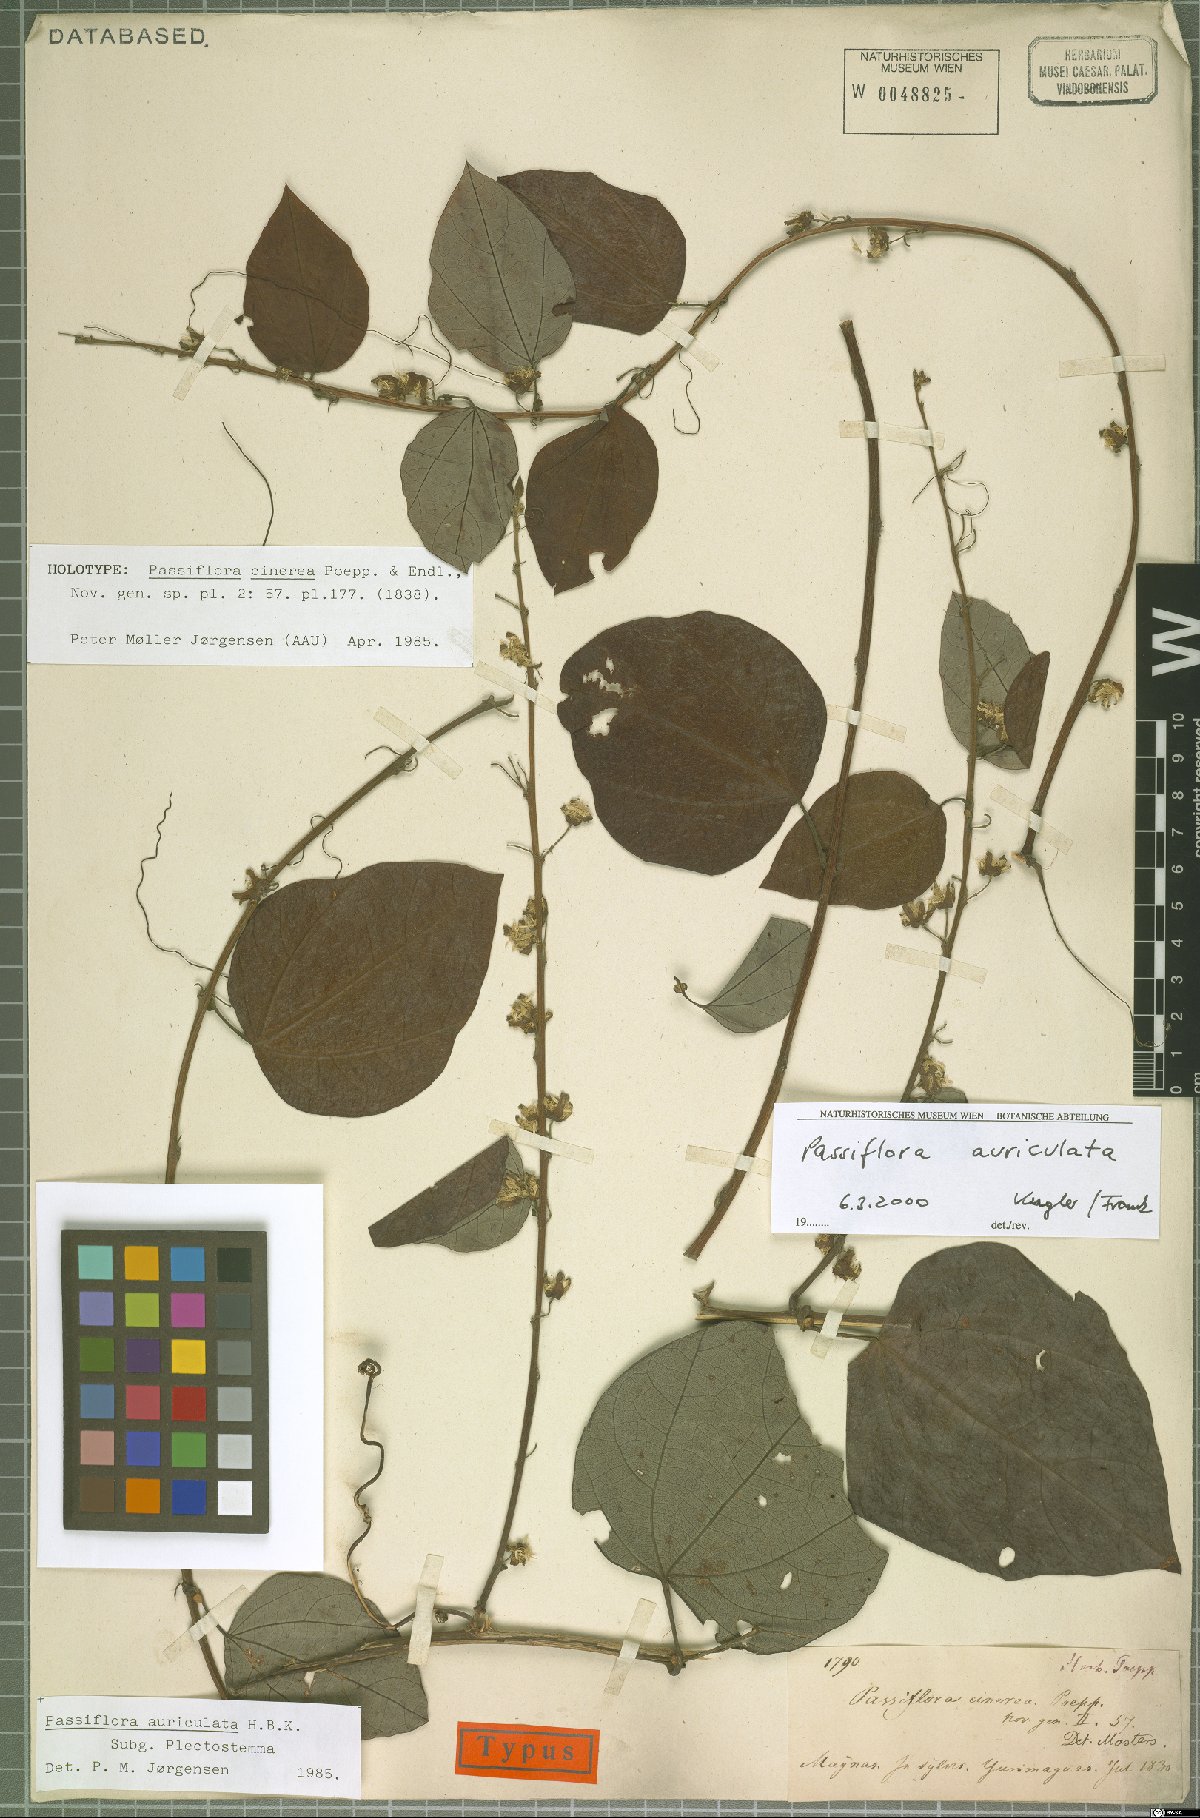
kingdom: Plantae
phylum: Tracheophyta
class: Magnoliopsida
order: Malpighiales
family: Passifloraceae
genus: Passiflora
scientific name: Passiflora auriculata
